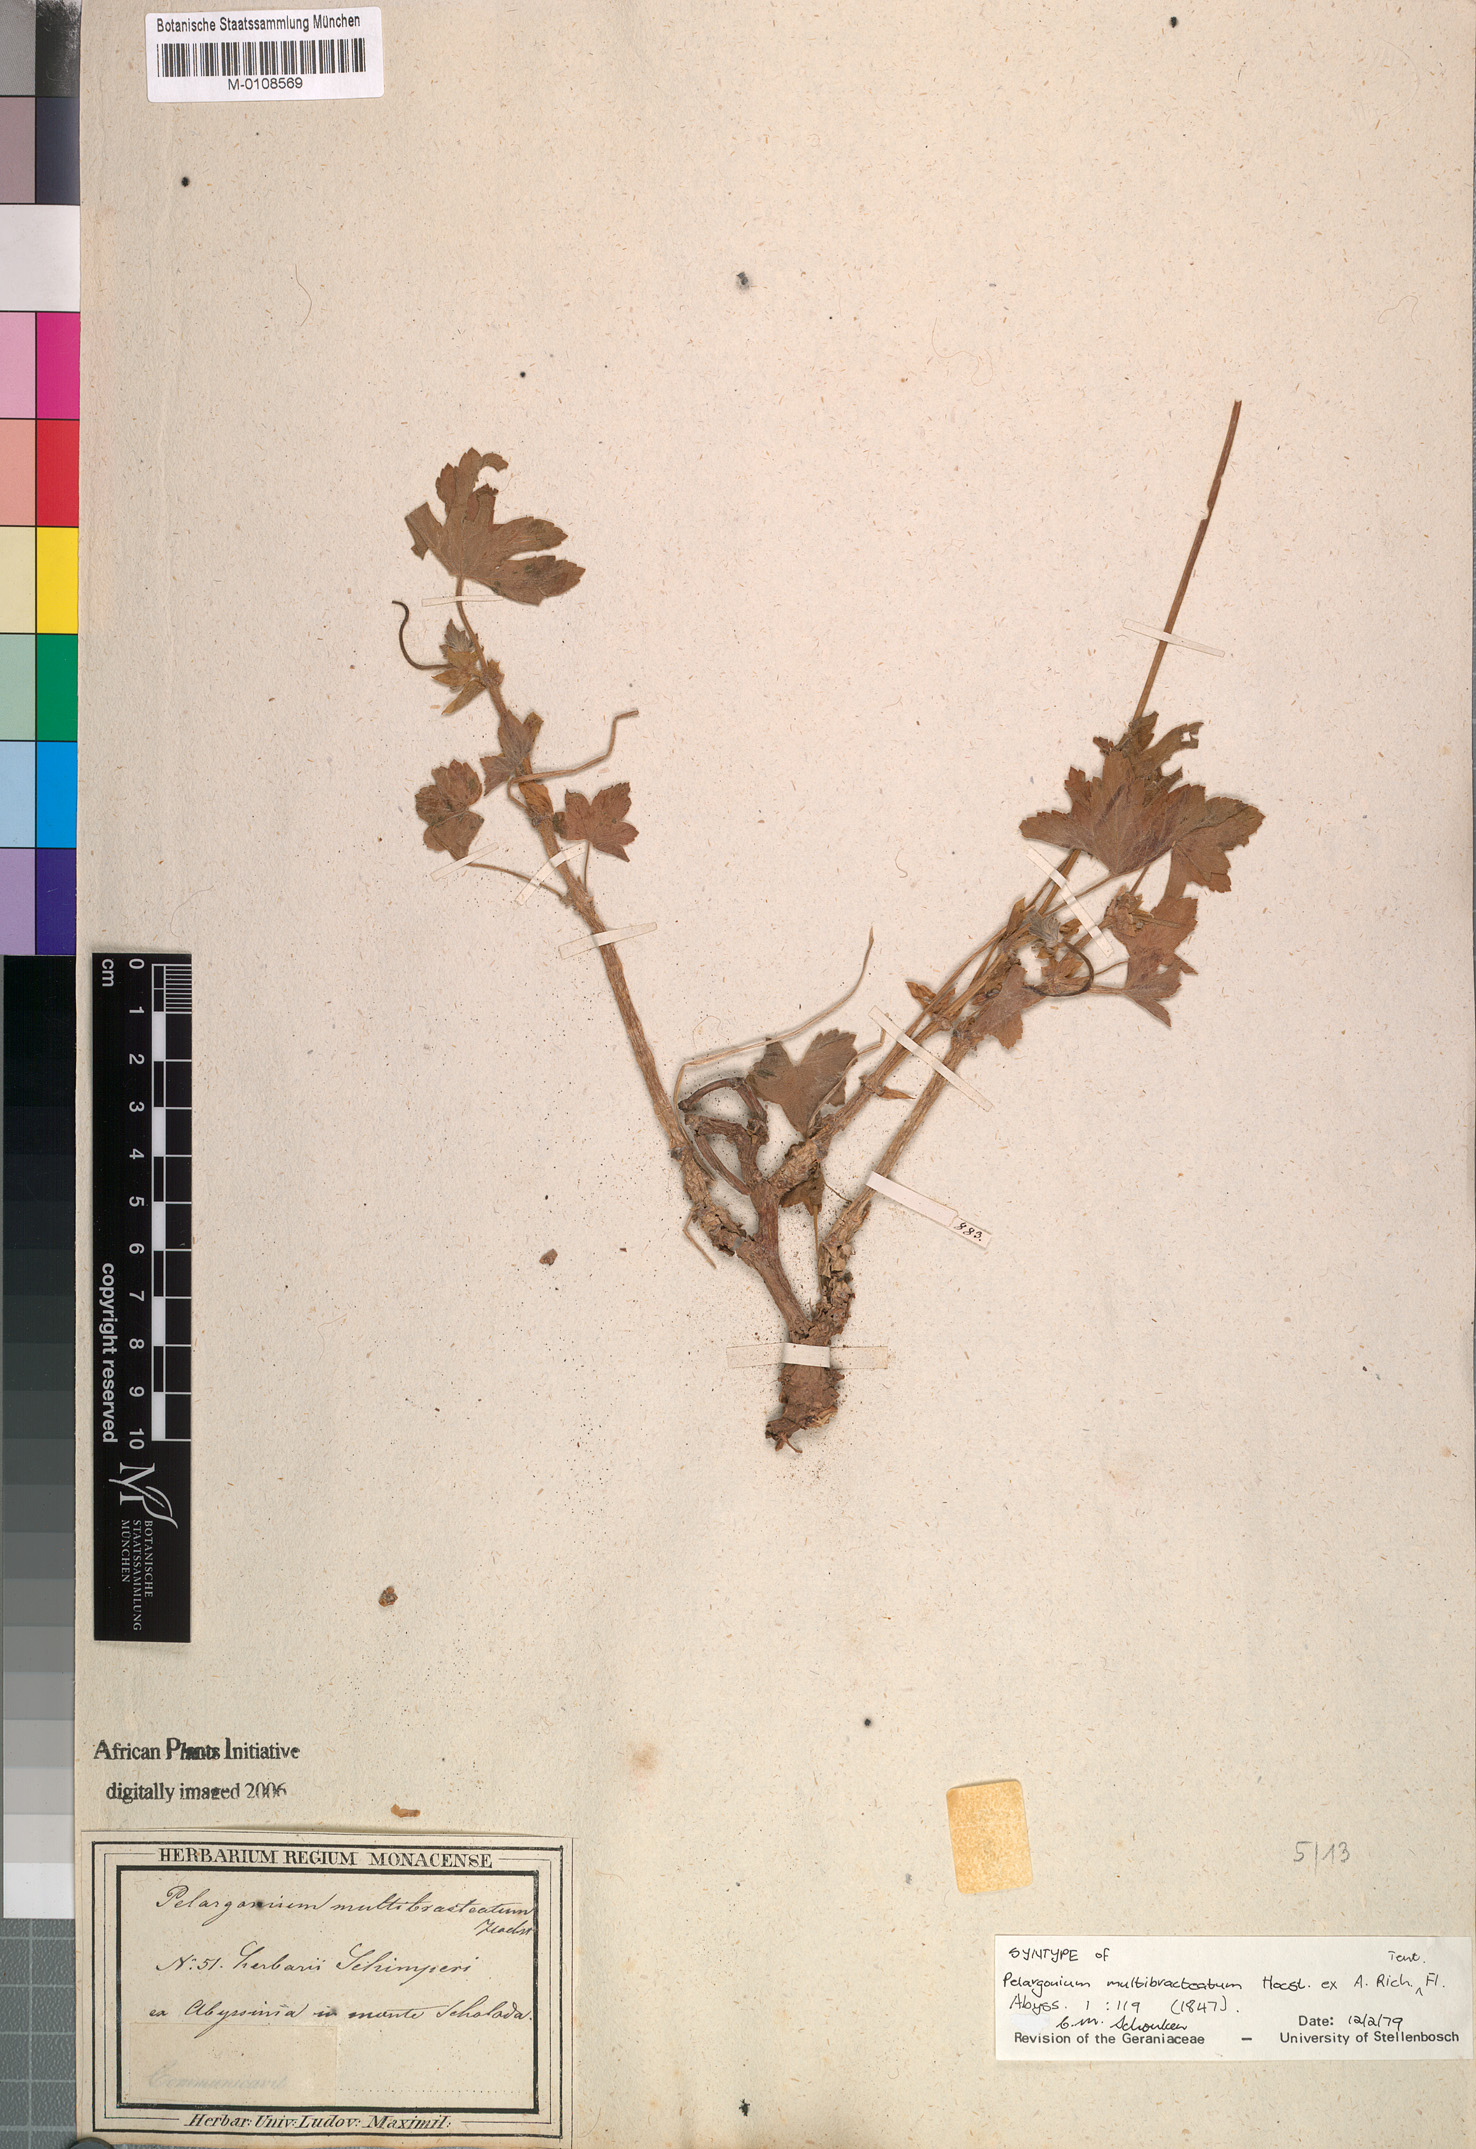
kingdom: Plantae
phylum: Tracheophyta
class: Magnoliopsida
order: Geraniales
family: Geraniaceae
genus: Pelargonium
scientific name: Pelargonium multibracteatum
